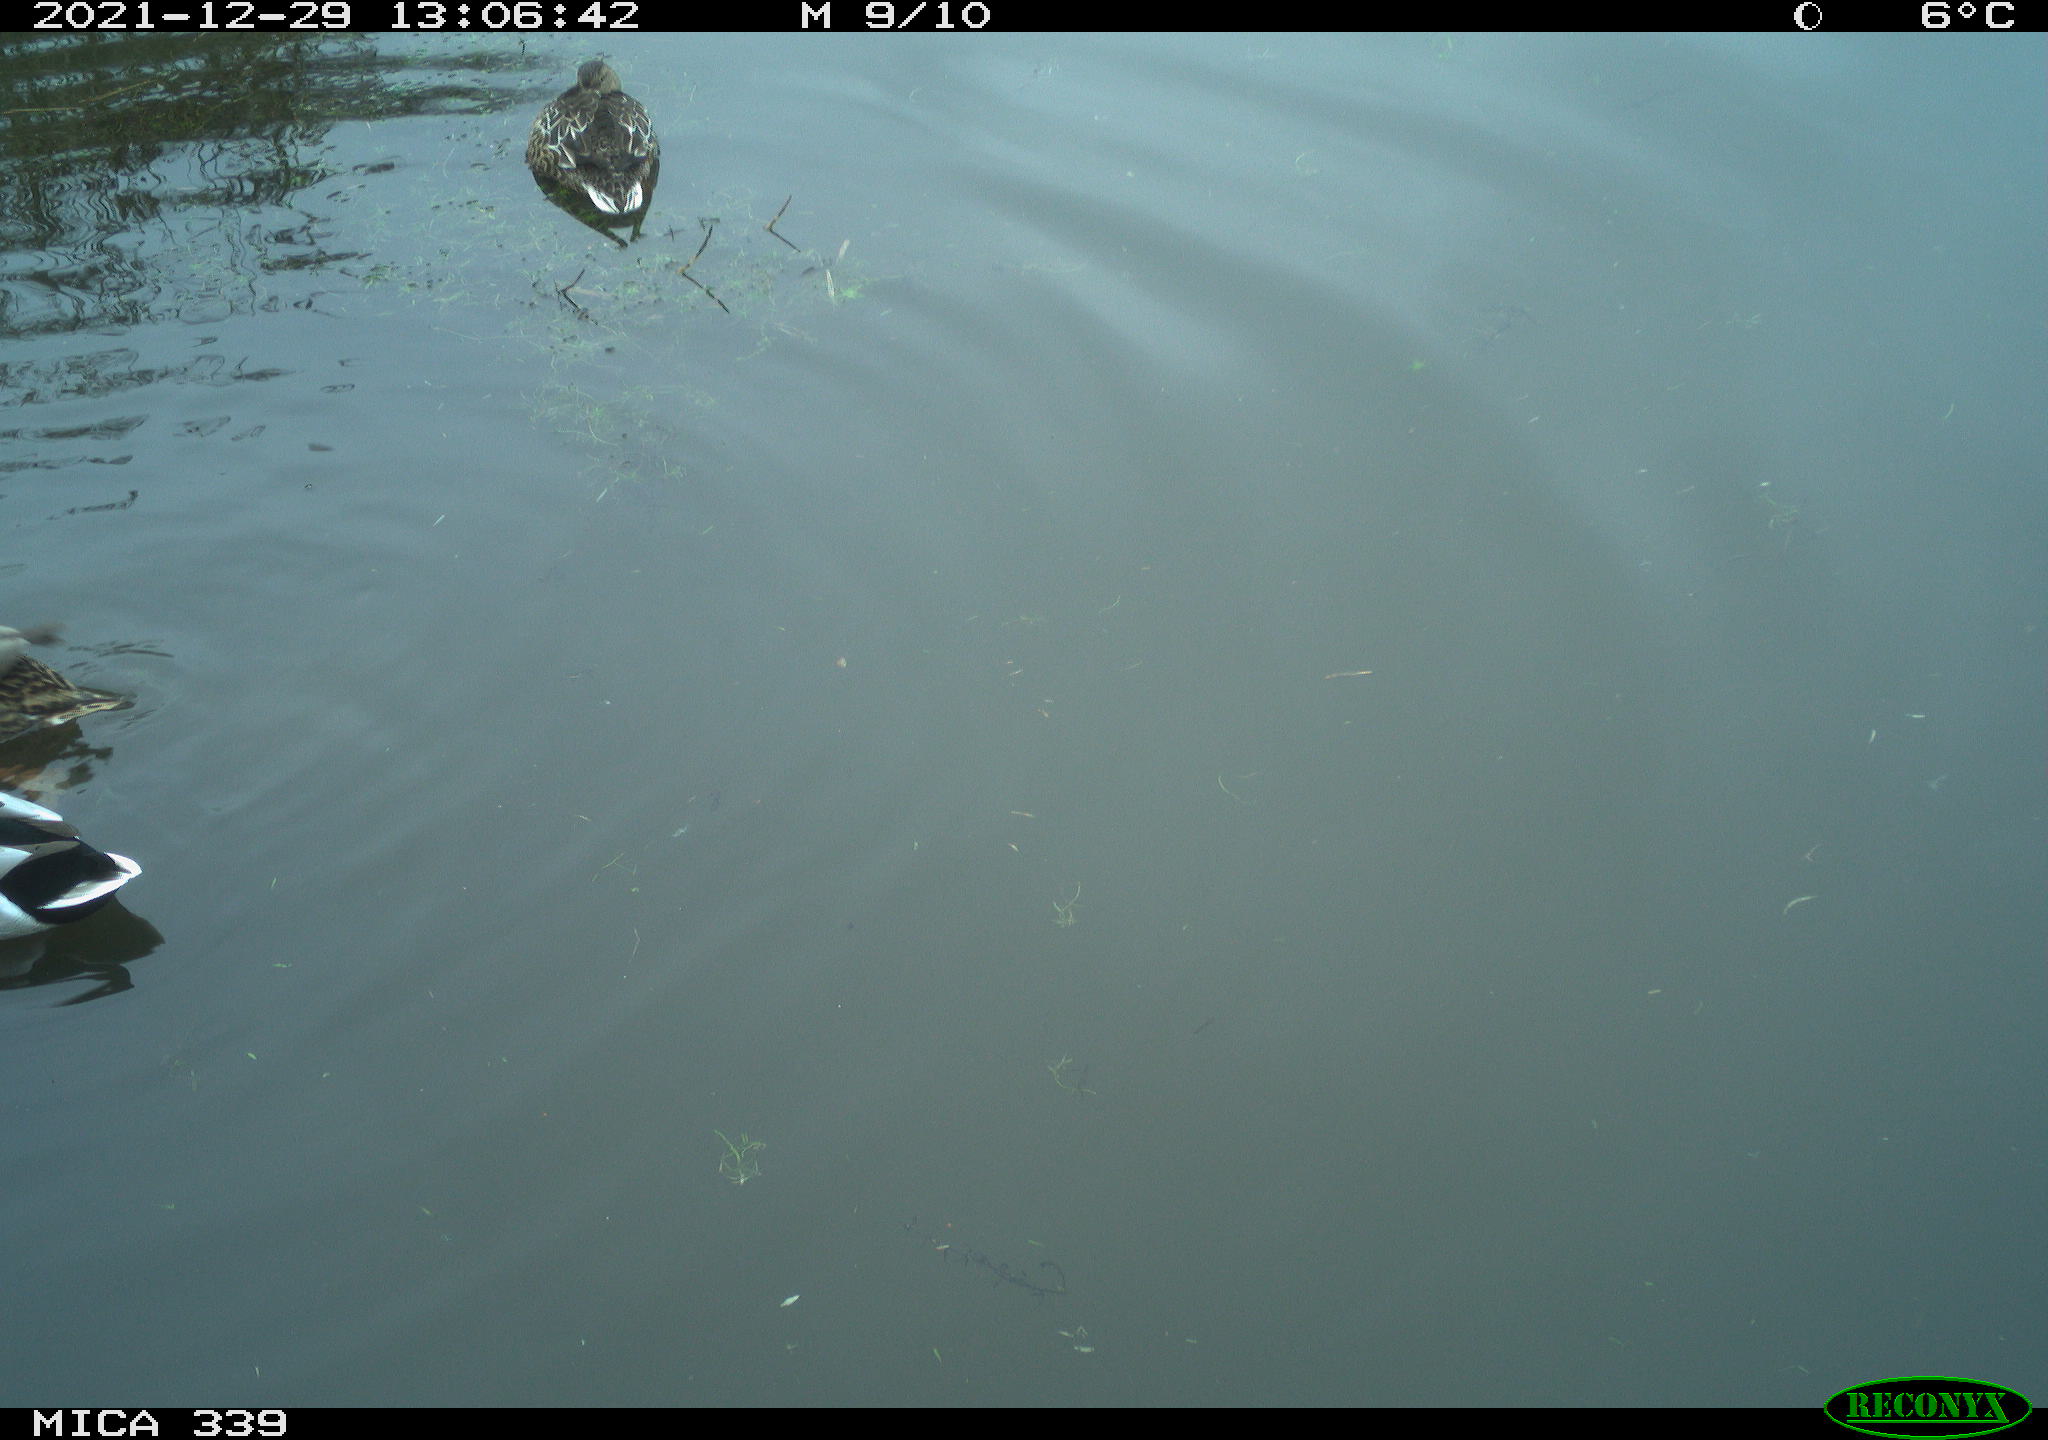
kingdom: Animalia
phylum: Chordata
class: Aves
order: Anseriformes
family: Anatidae
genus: Anas
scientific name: Anas platyrhynchos
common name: Mallard
